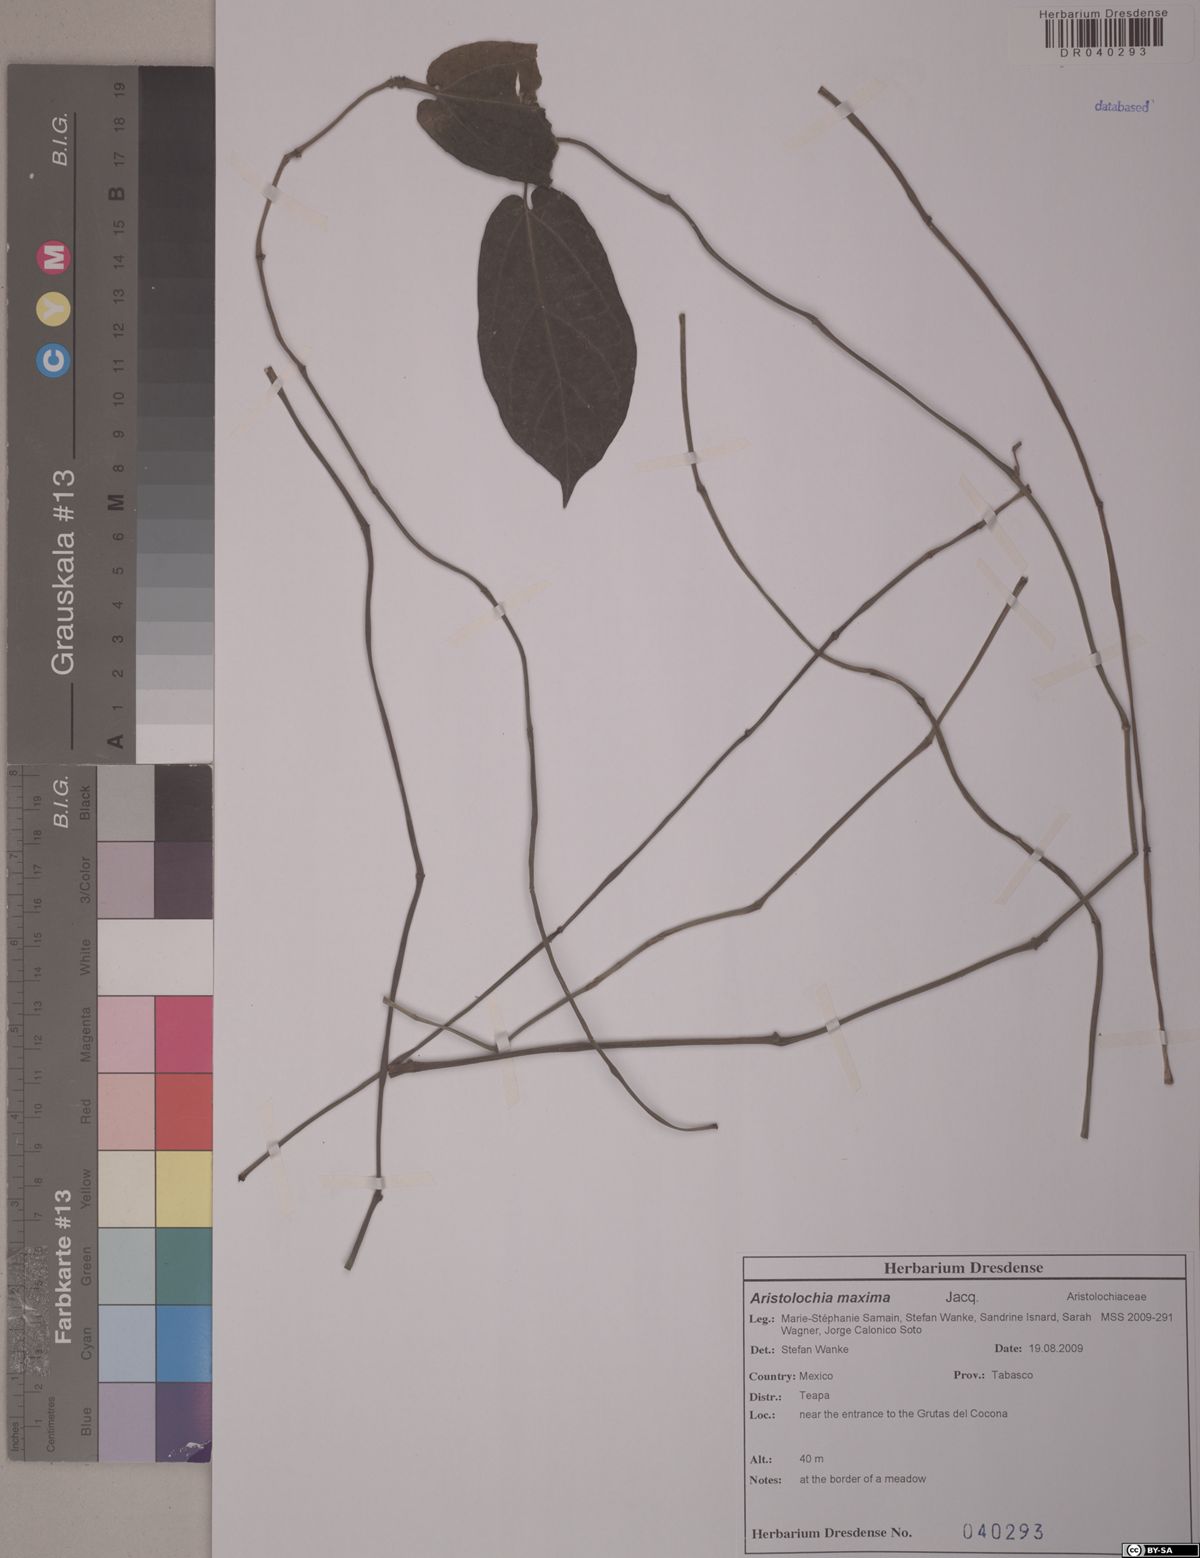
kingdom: Plantae
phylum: Tracheophyta
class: Magnoliopsida
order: Piperales
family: Aristolochiaceae
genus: Aristolochia
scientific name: Aristolochia maxima
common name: Florida dutchman's pipe
